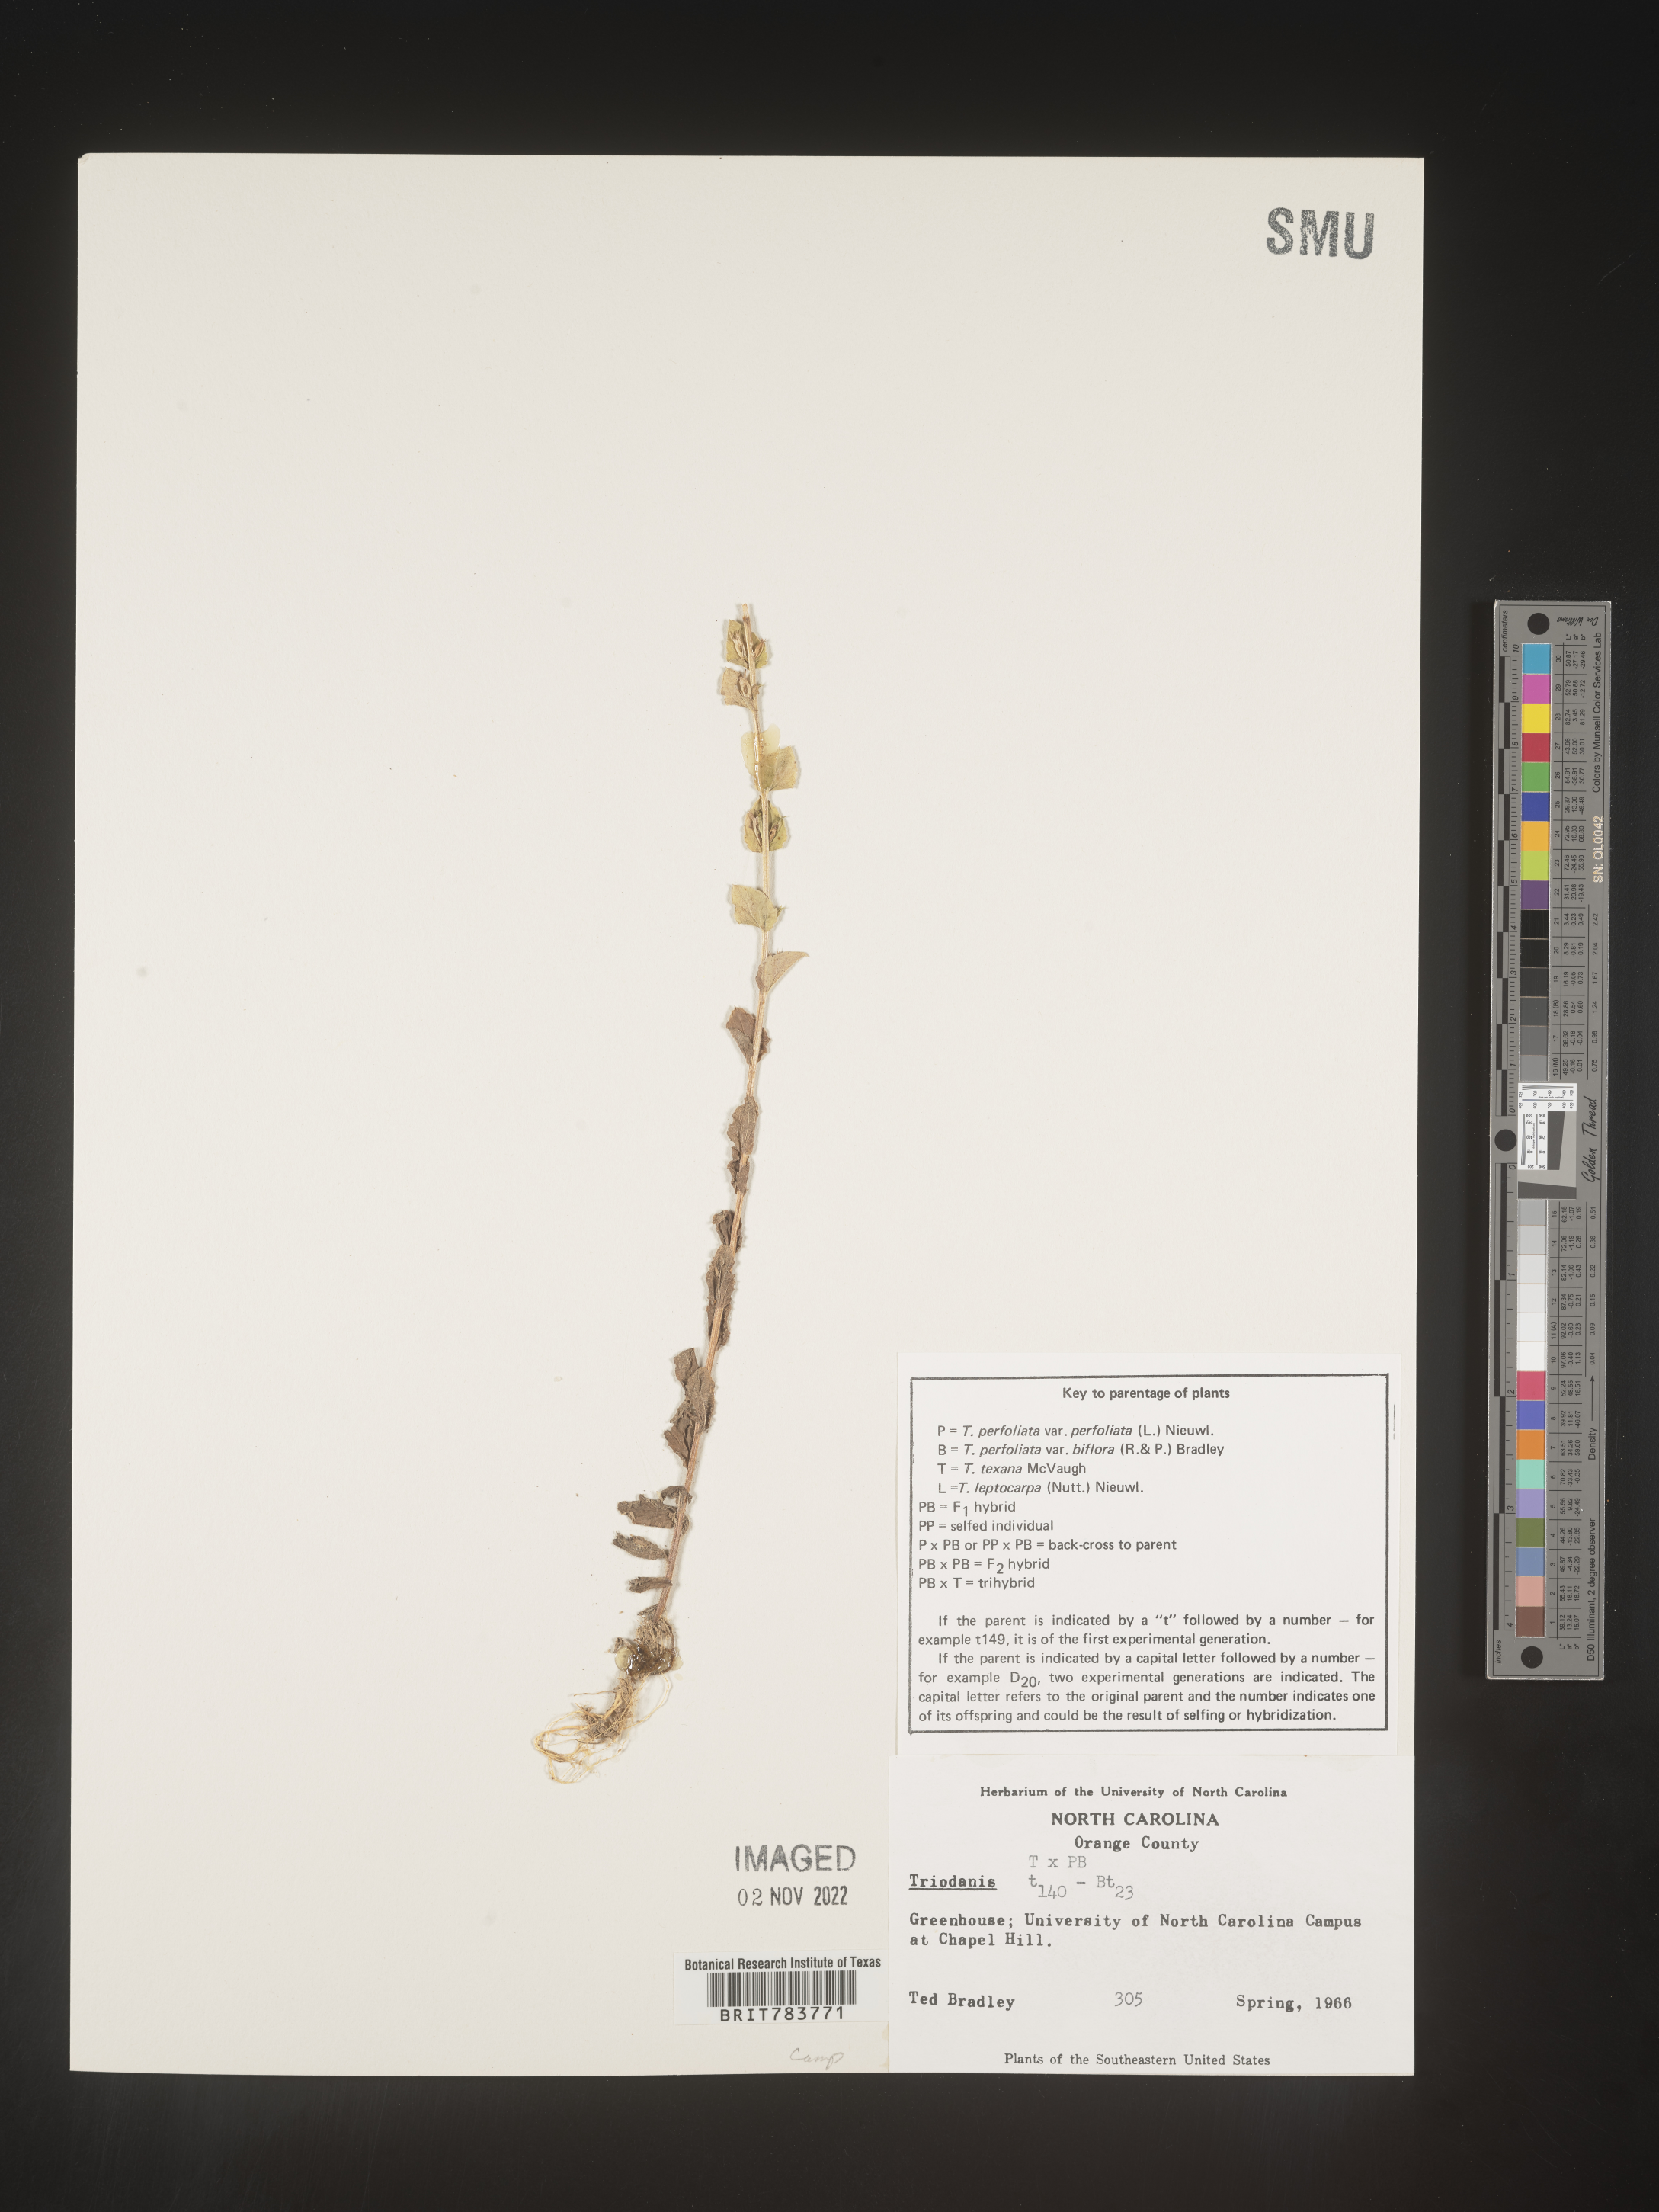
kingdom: Plantae
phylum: Tracheophyta
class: Magnoliopsida
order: Asterales
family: Campanulaceae
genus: Triodanis
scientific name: Triodanis
